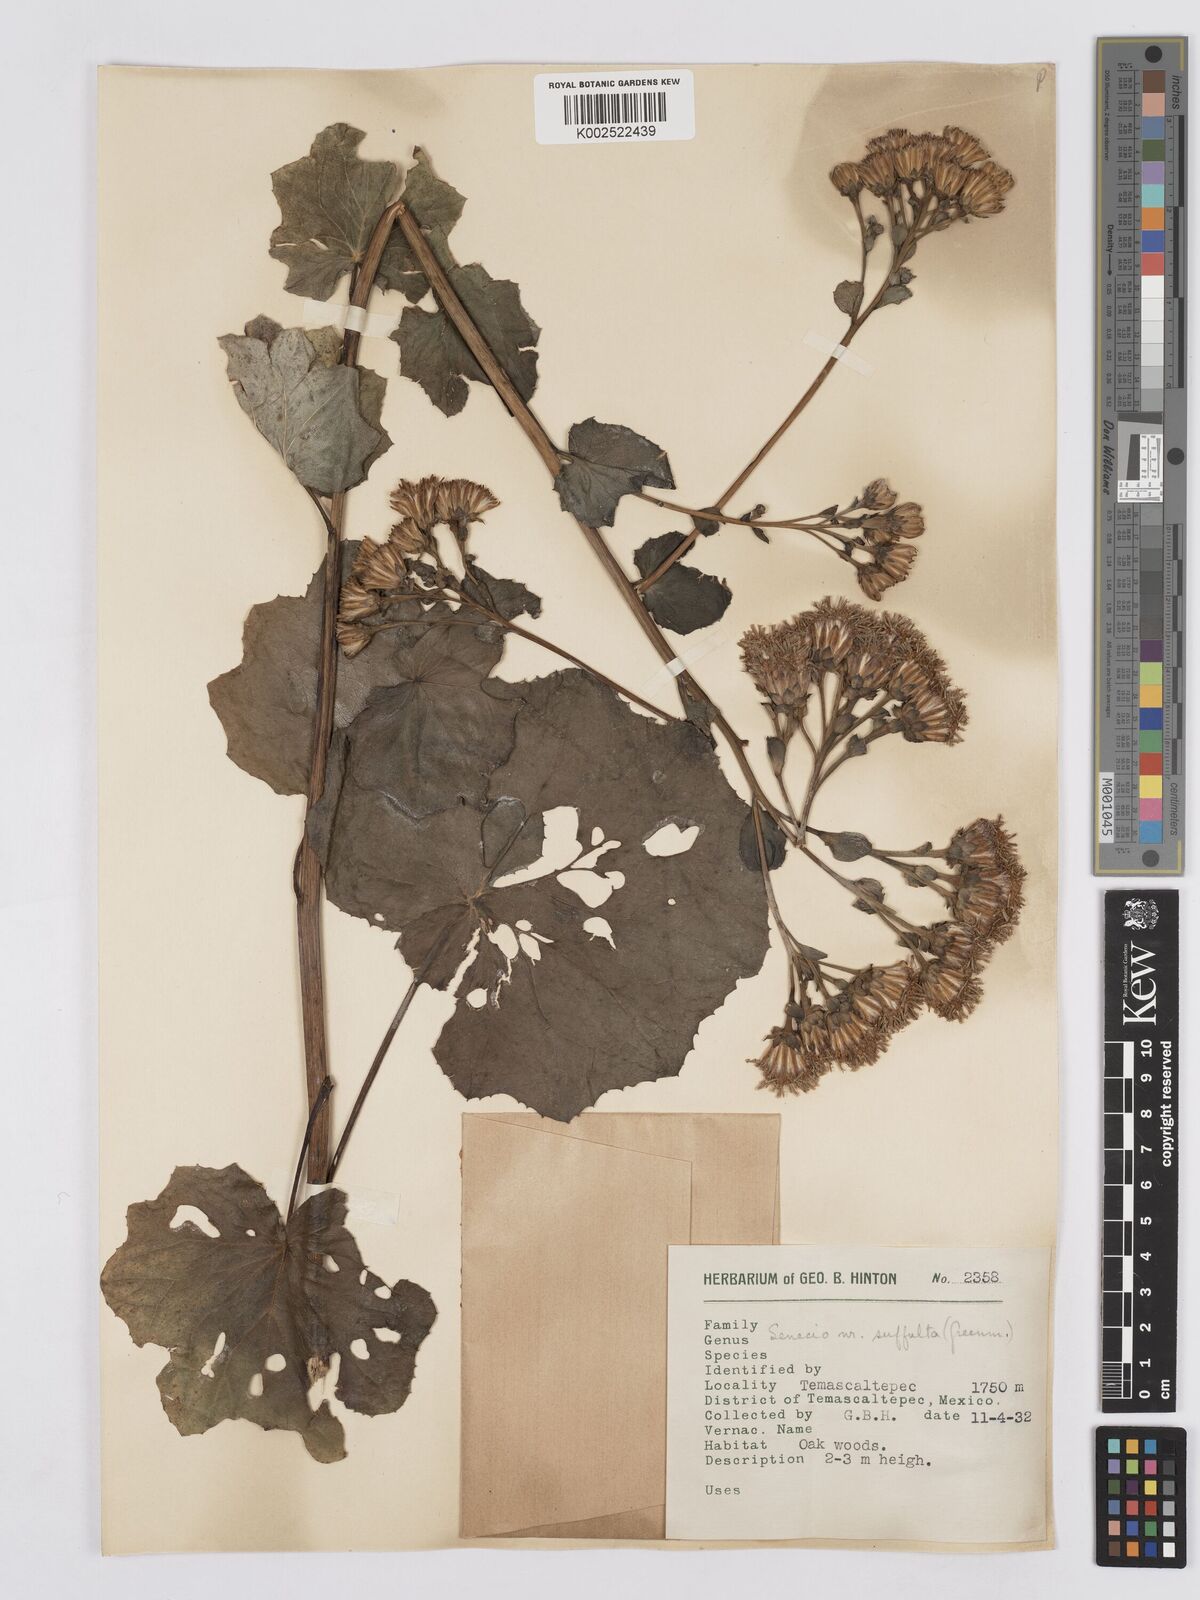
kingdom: Plantae
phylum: Tracheophyta
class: Magnoliopsida
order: Asterales
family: Asteraceae
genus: Roldana
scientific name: Roldana suffulta
